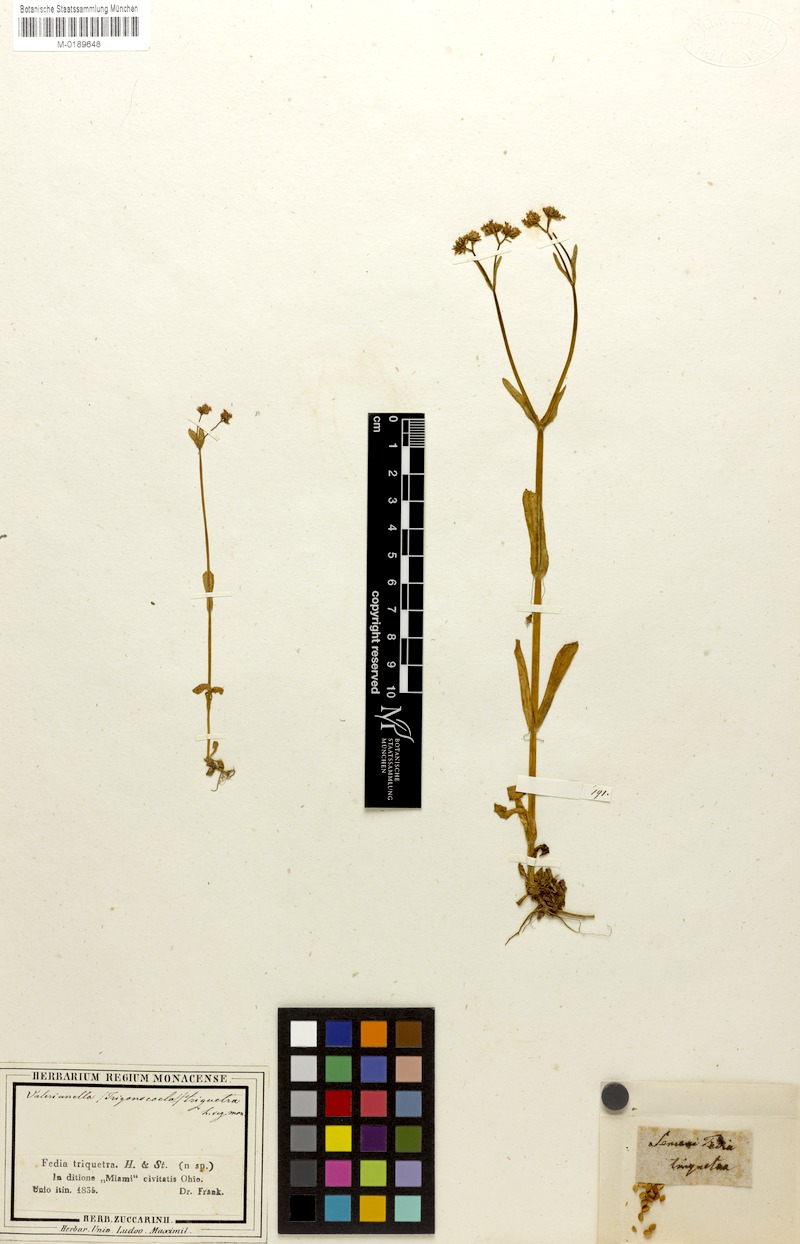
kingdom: Plantae
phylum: Tracheophyta
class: Magnoliopsida
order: Dipsacales
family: Caprifoliaceae
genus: Valerianella
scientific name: Valerianella chenopodiifolia
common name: Goosefoot cornsalad
